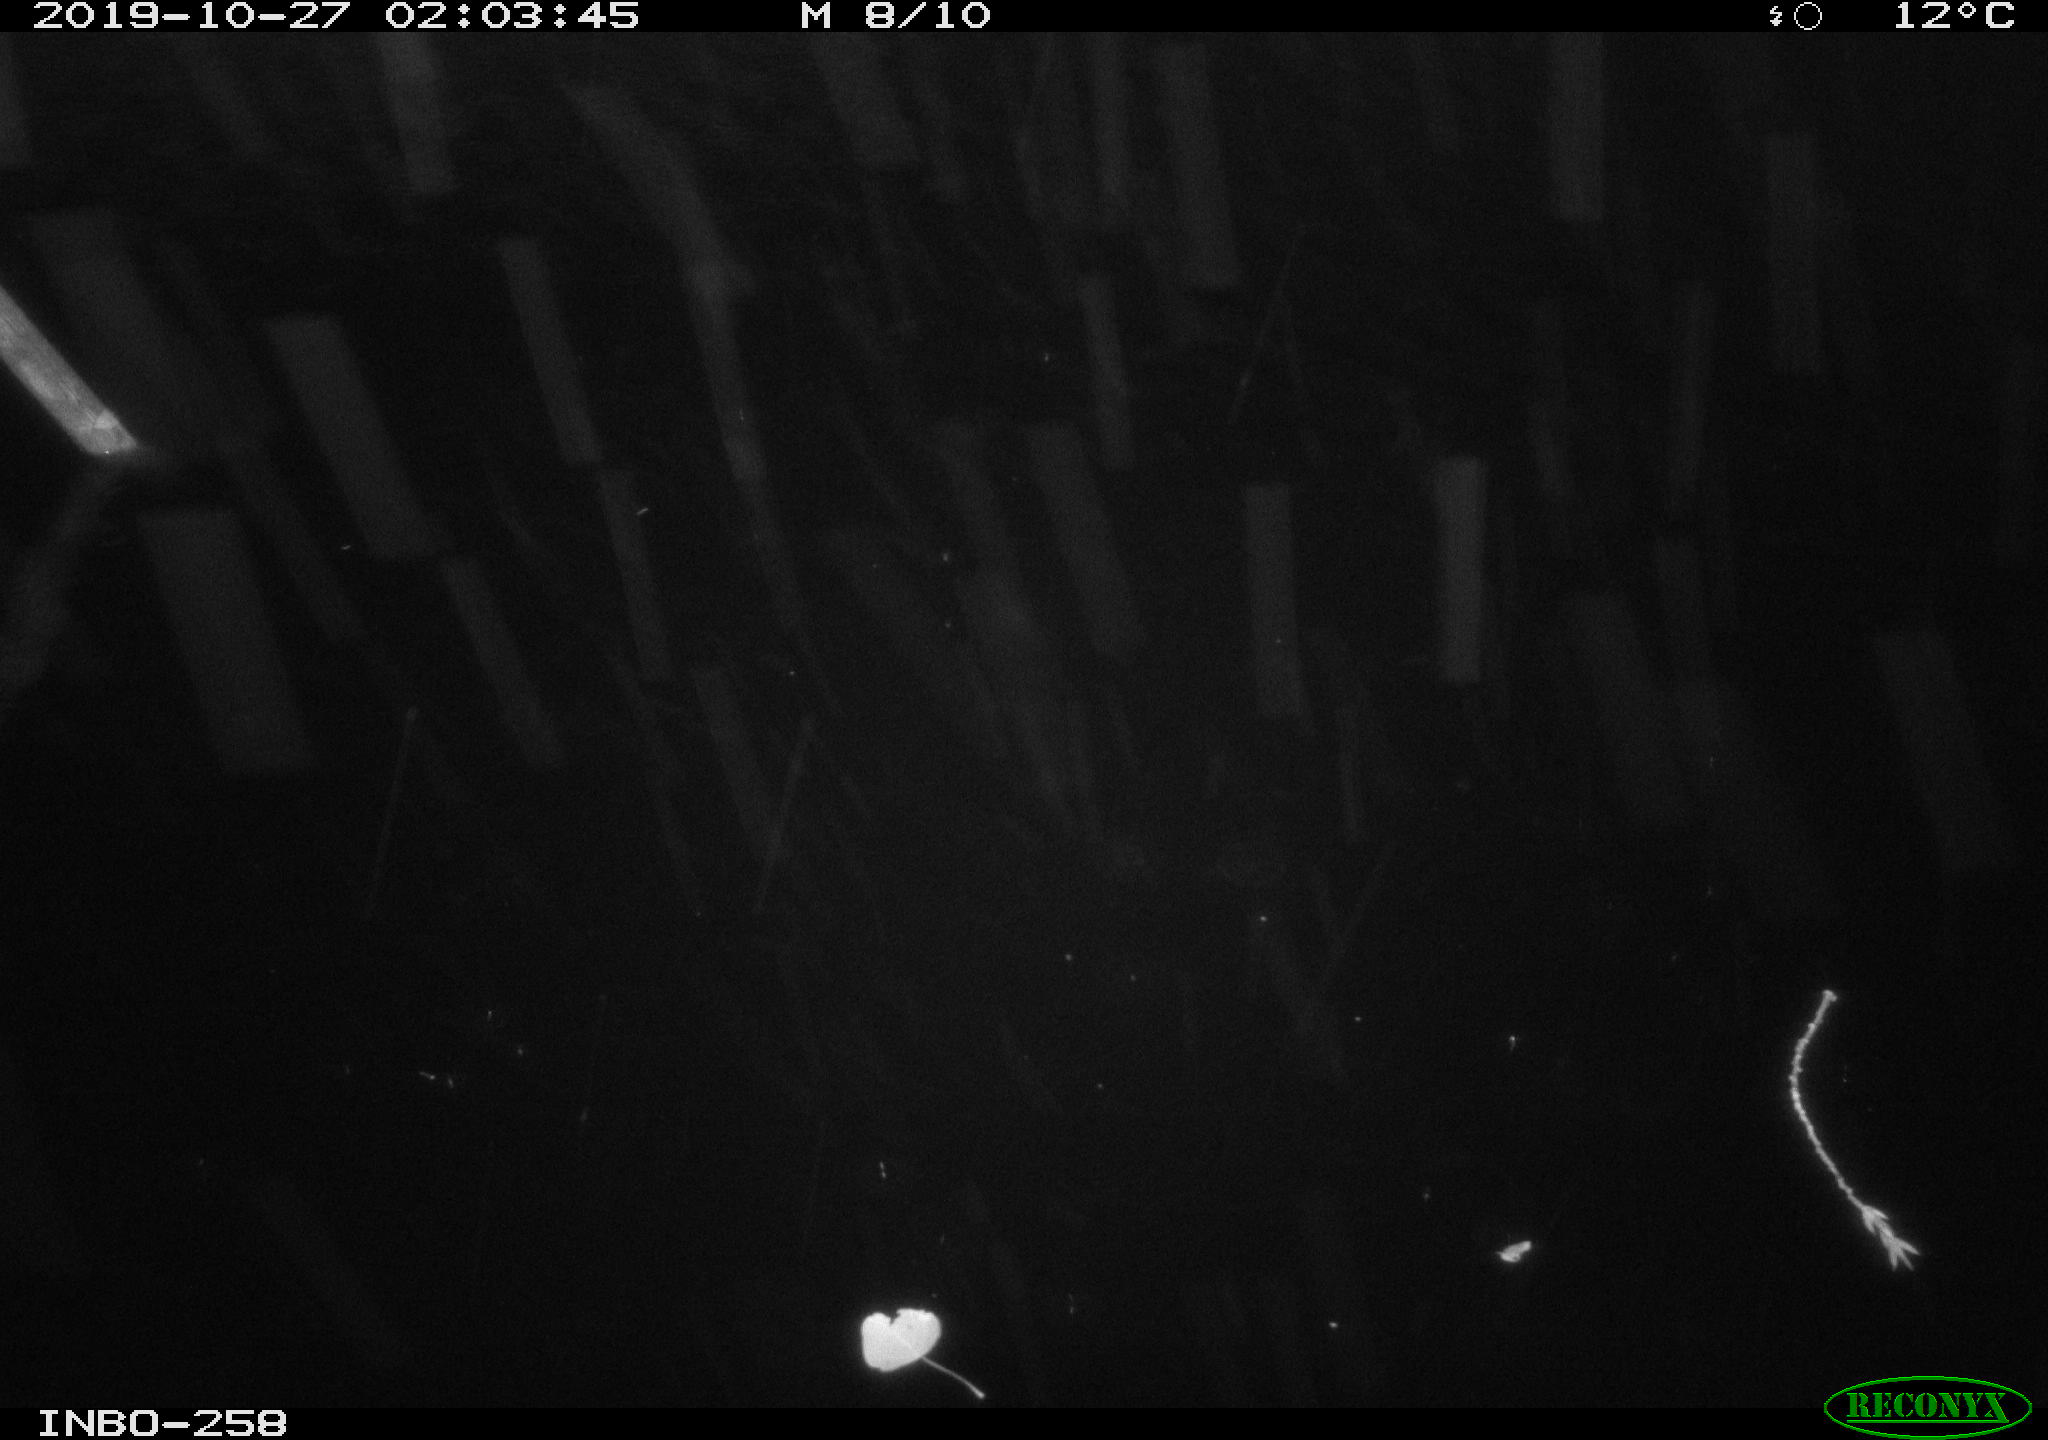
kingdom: Animalia
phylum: Chordata
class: Aves
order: Anseriformes
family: Anatidae
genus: Anas
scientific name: Anas platyrhynchos
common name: Mallard
